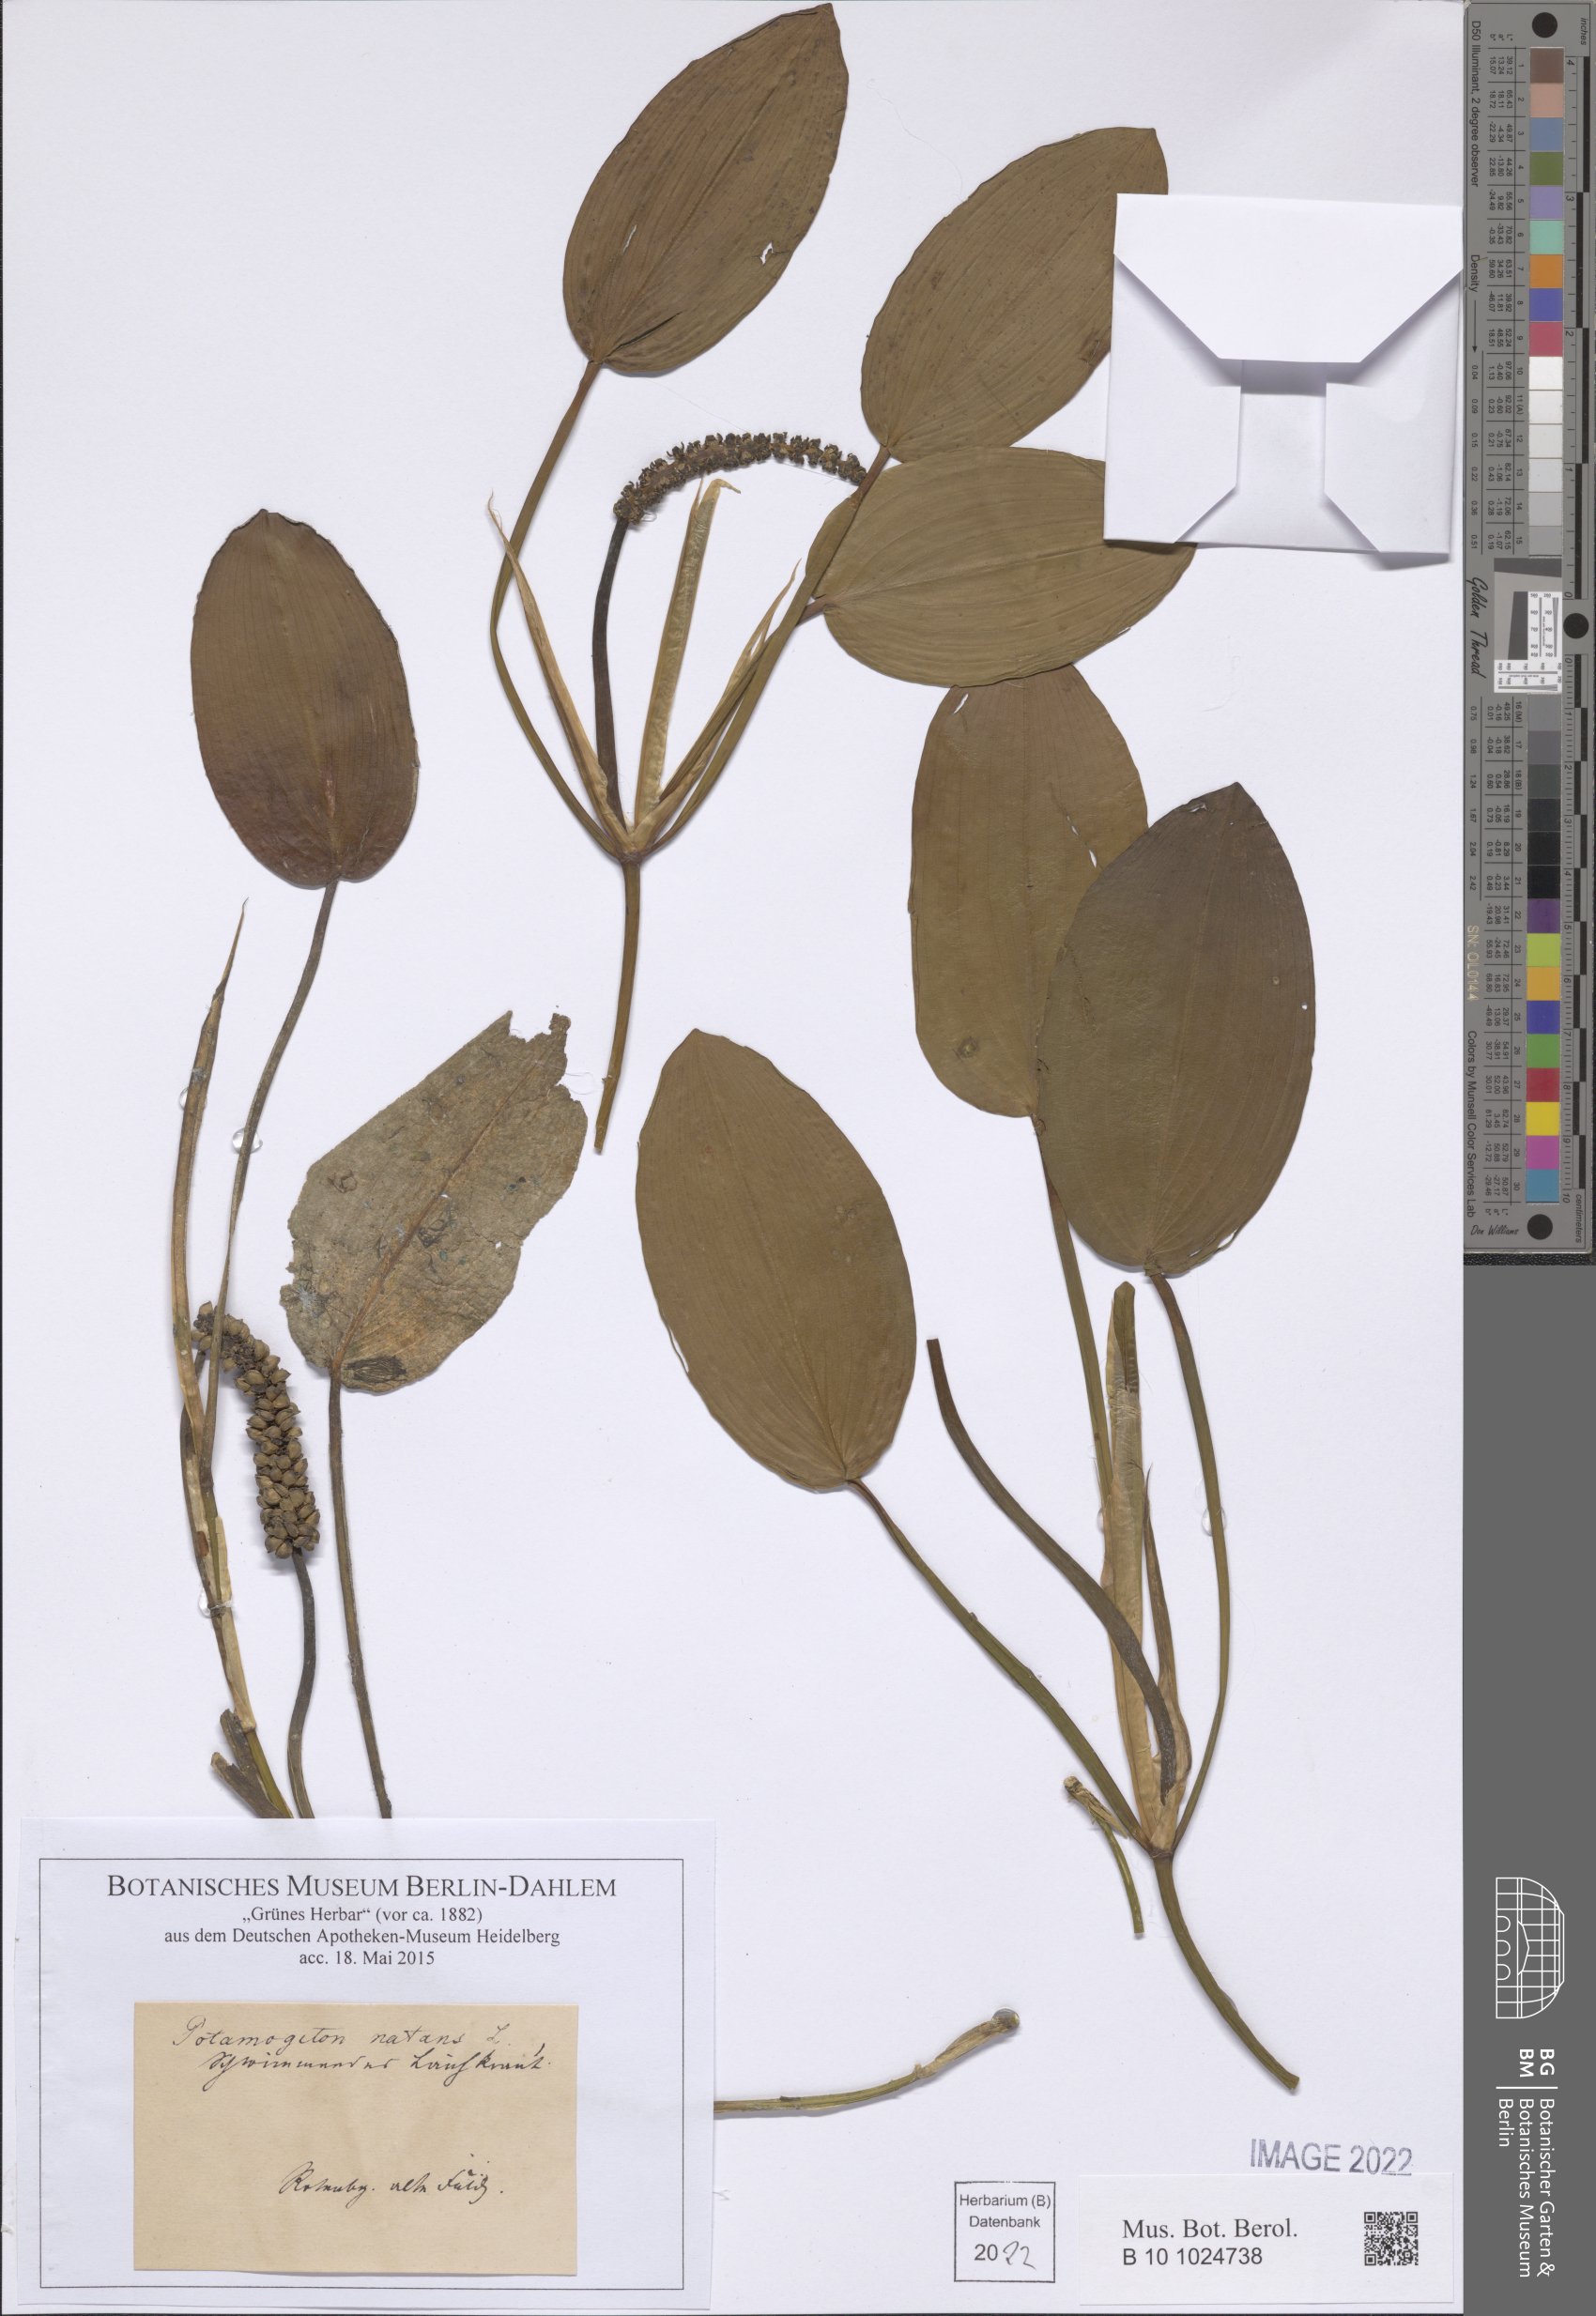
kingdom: Plantae
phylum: Tracheophyta
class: Liliopsida
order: Alismatales
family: Potamogetonaceae
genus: Potamogeton
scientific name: Potamogeton natans
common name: Broad-leaved pondweed
